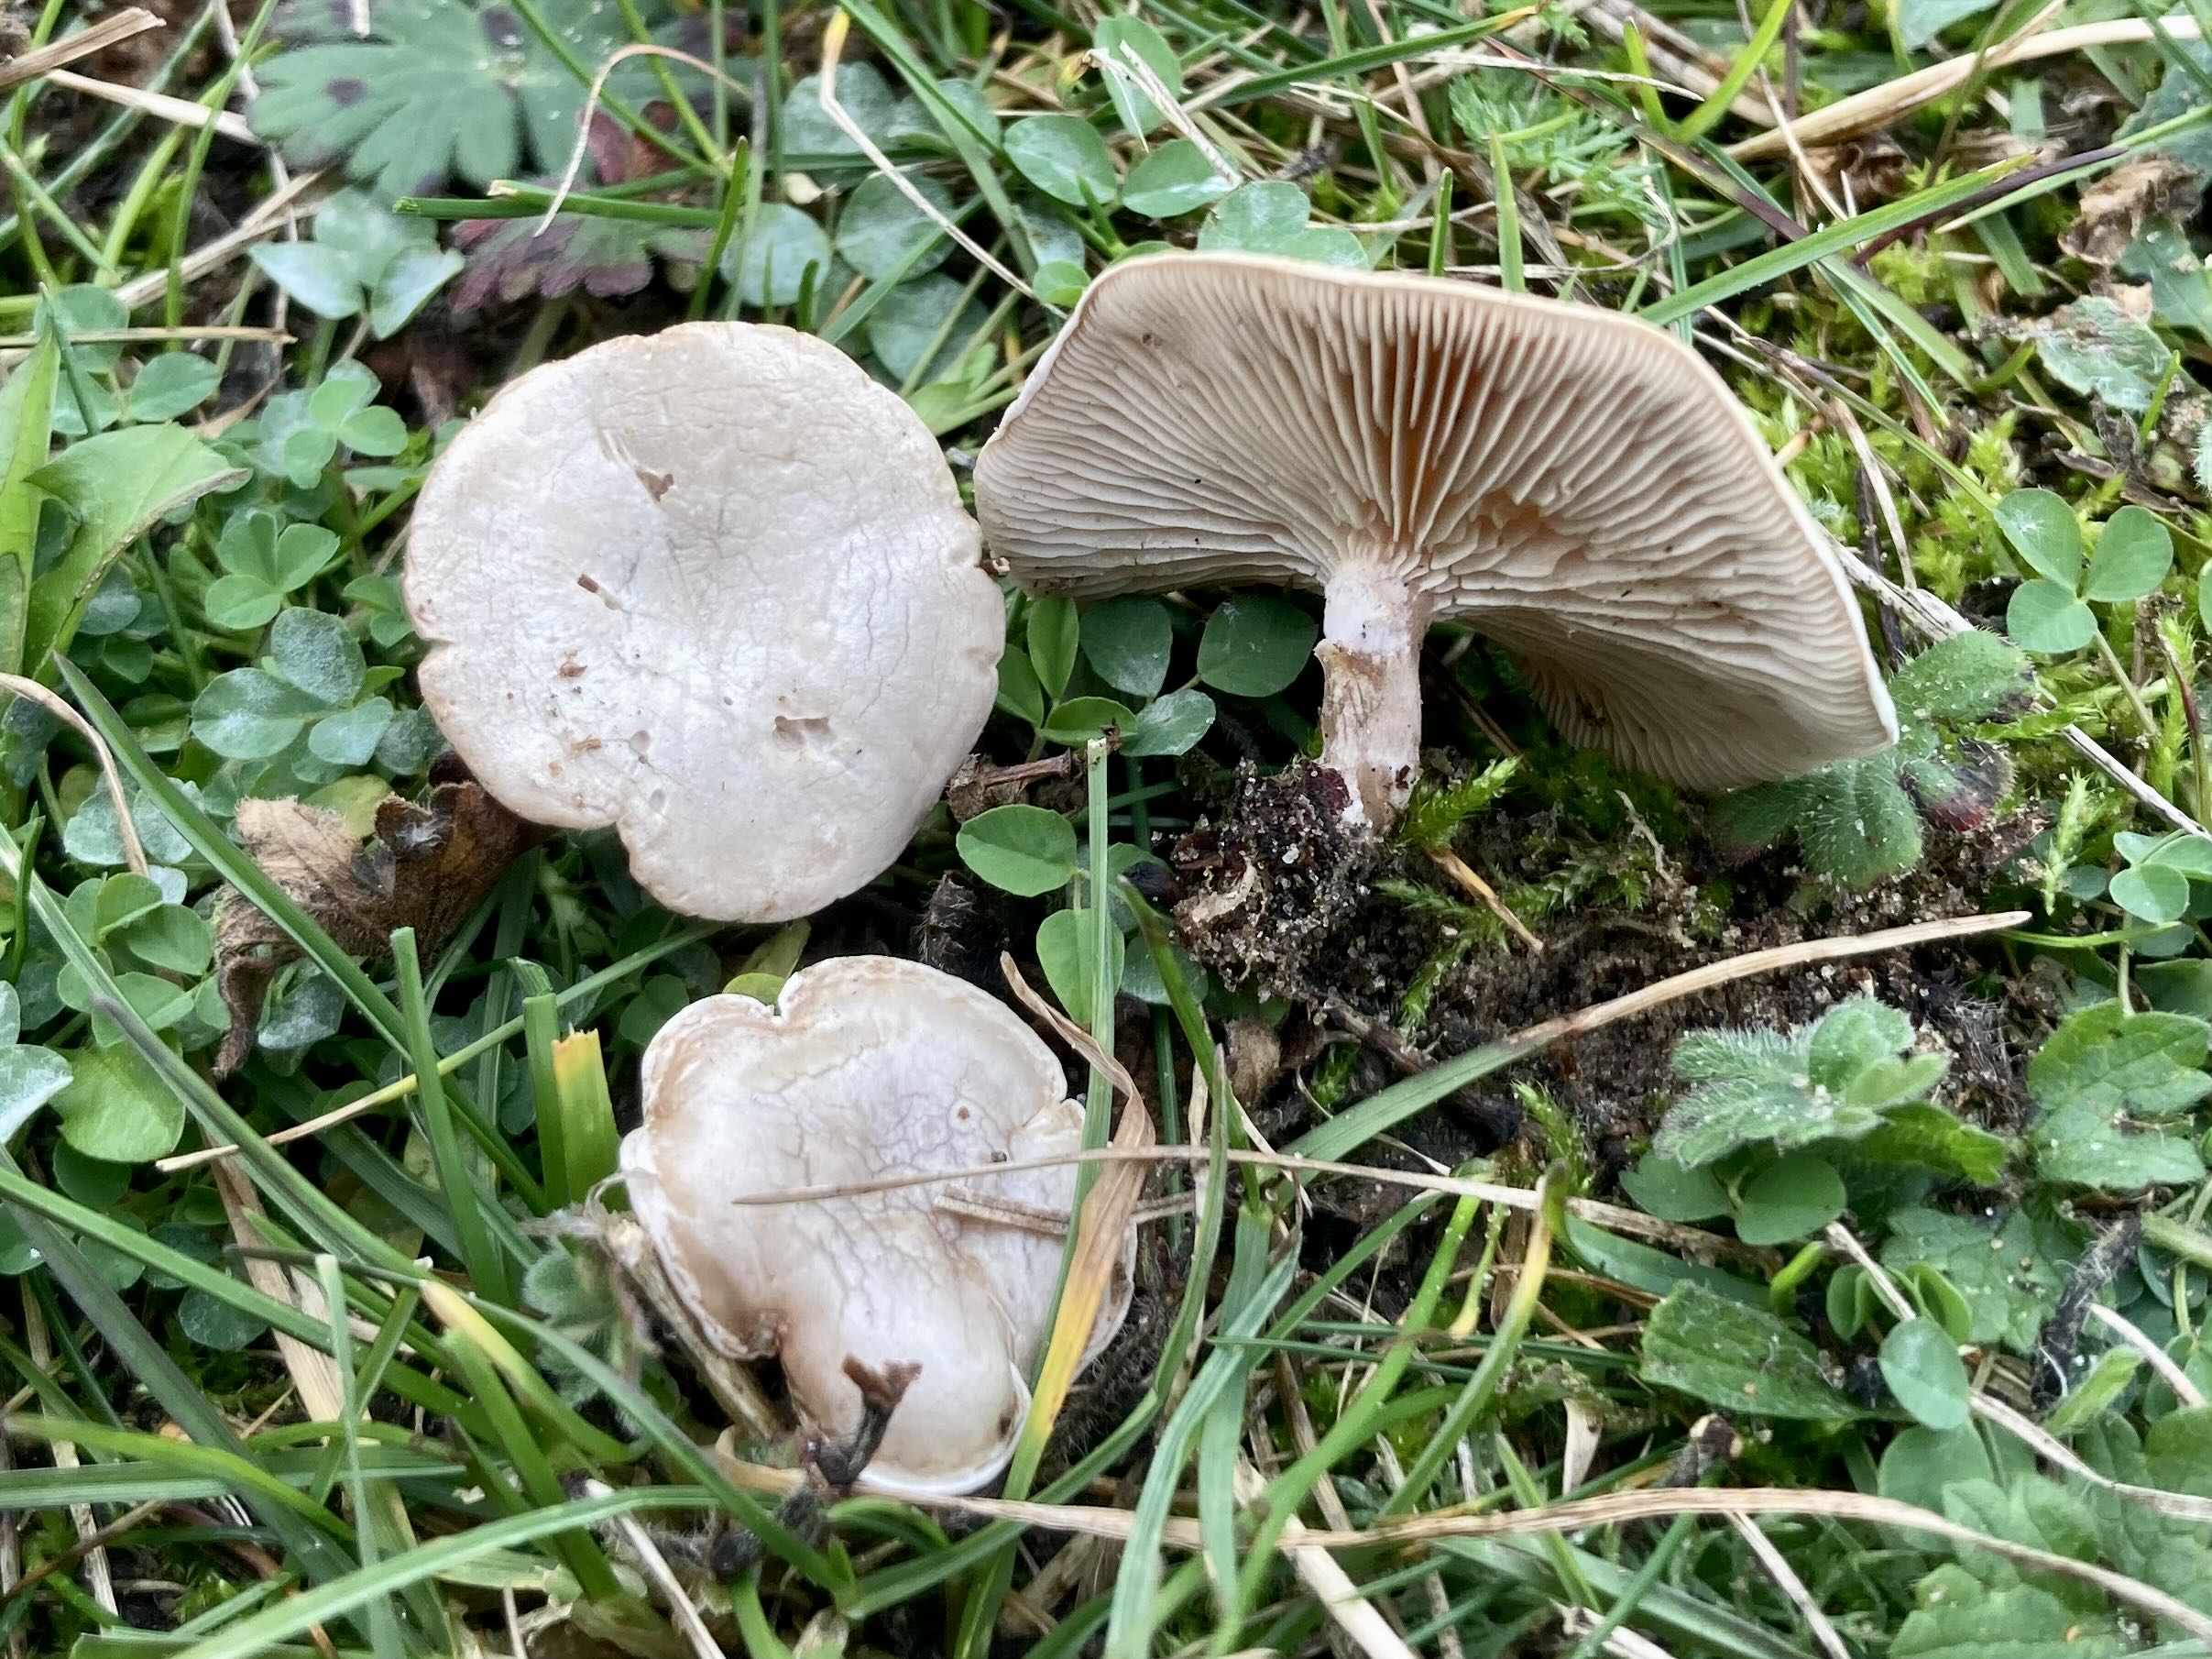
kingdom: Fungi
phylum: Basidiomycota
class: Agaricomycetes
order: Agaricales
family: Tricholomataceae
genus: Clitocybe
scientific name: Clitocybe
